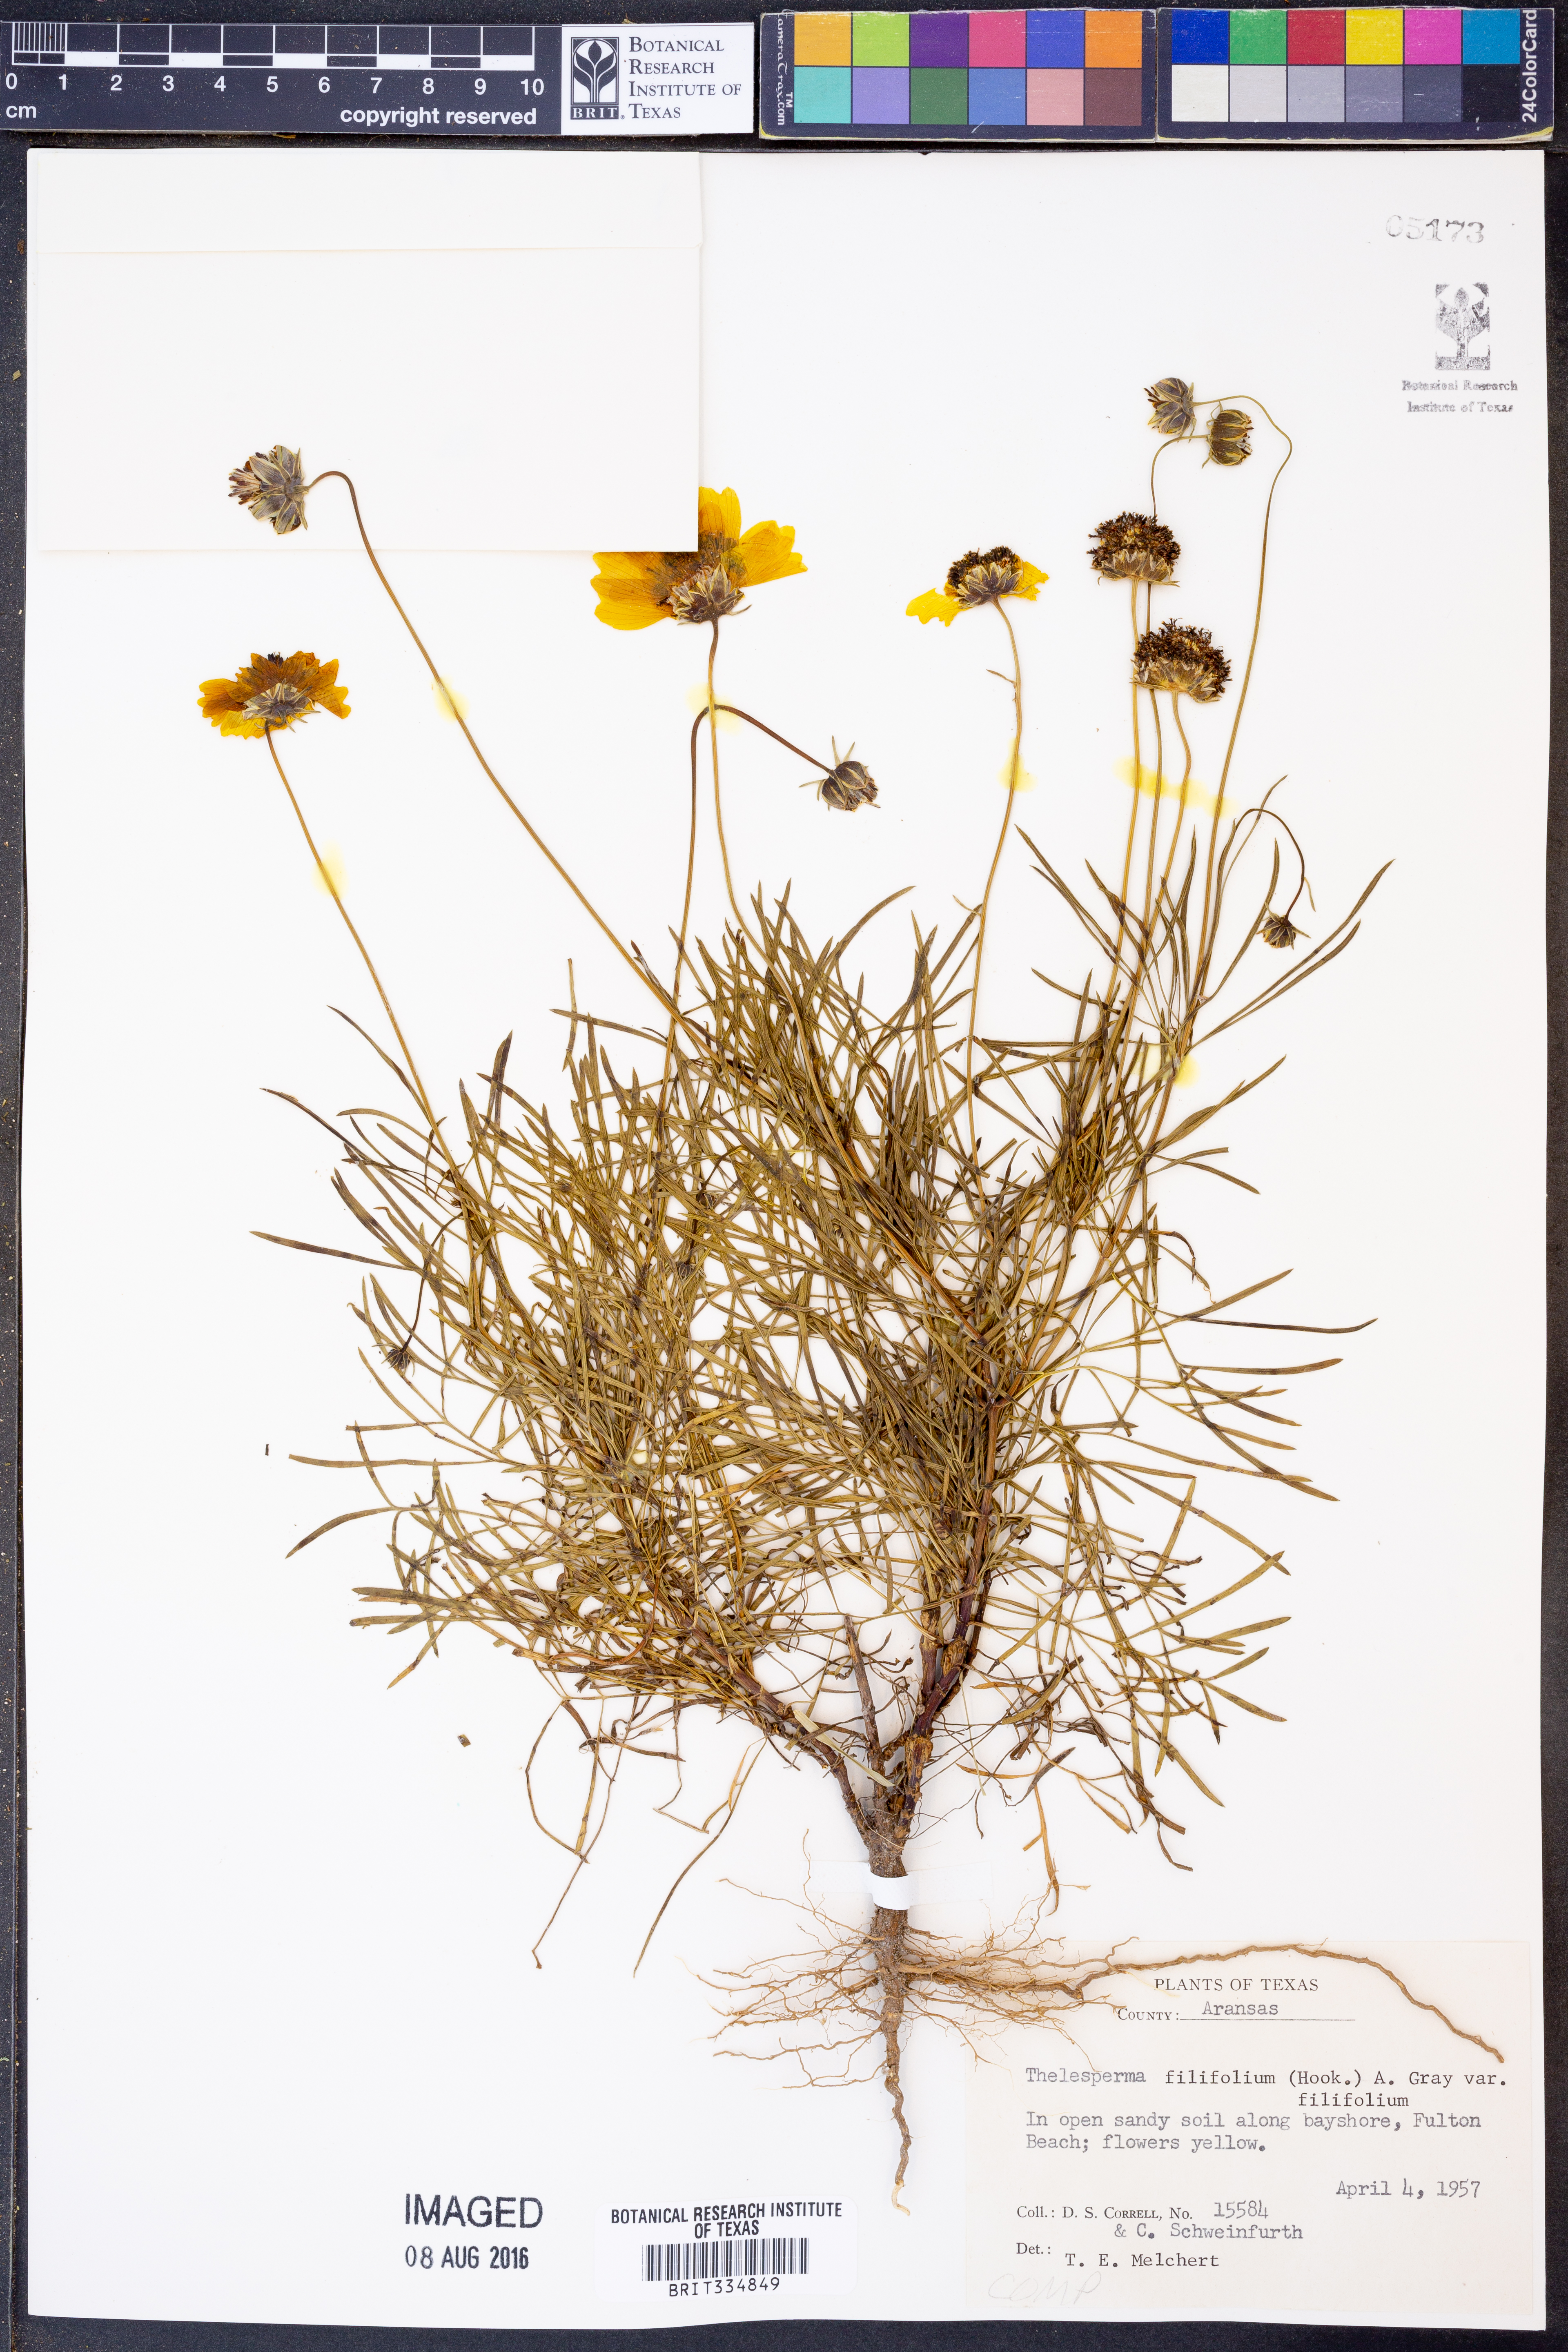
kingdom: Plantae
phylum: Tracheophyta
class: Magnoliopsida
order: Asterales
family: Asteraceae
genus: Thelesperma
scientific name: Thelesperma filifolium
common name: Stiff greenthread
